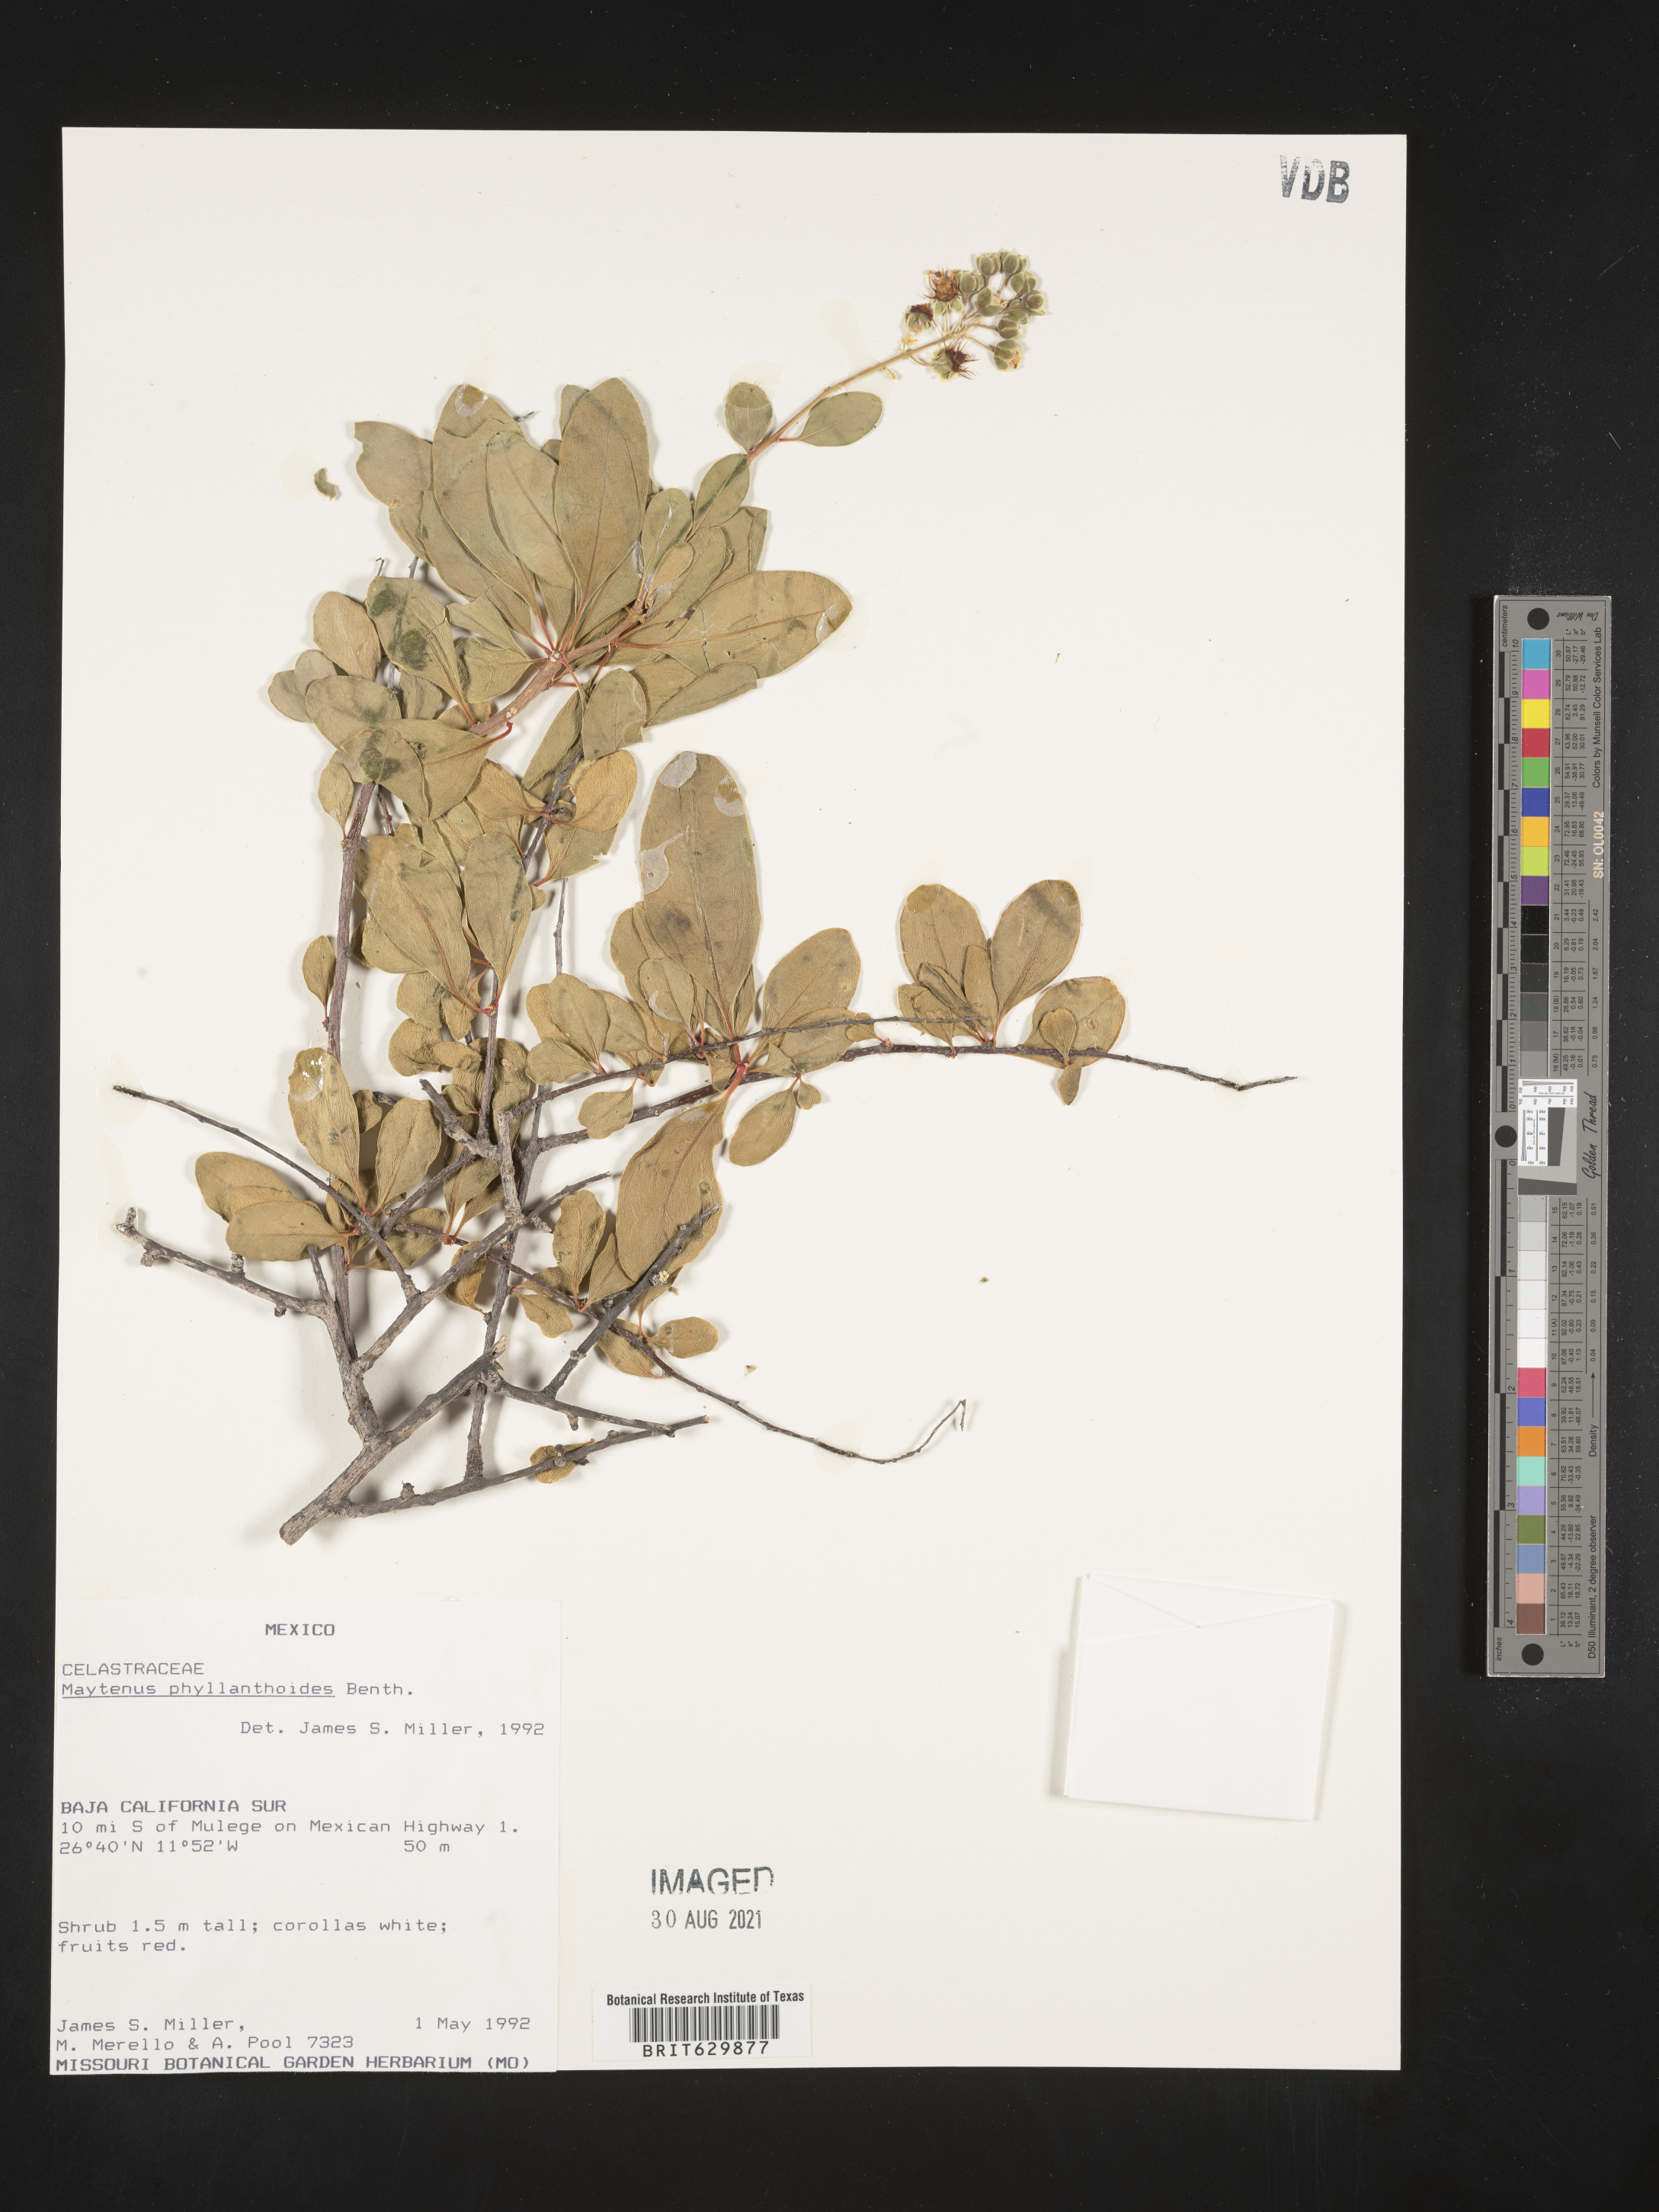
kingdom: Plantae
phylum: Tracheophyta
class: Magnoliopsida
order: Celastrales
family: Celastraceae
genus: Maytenus
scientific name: Maytenus
